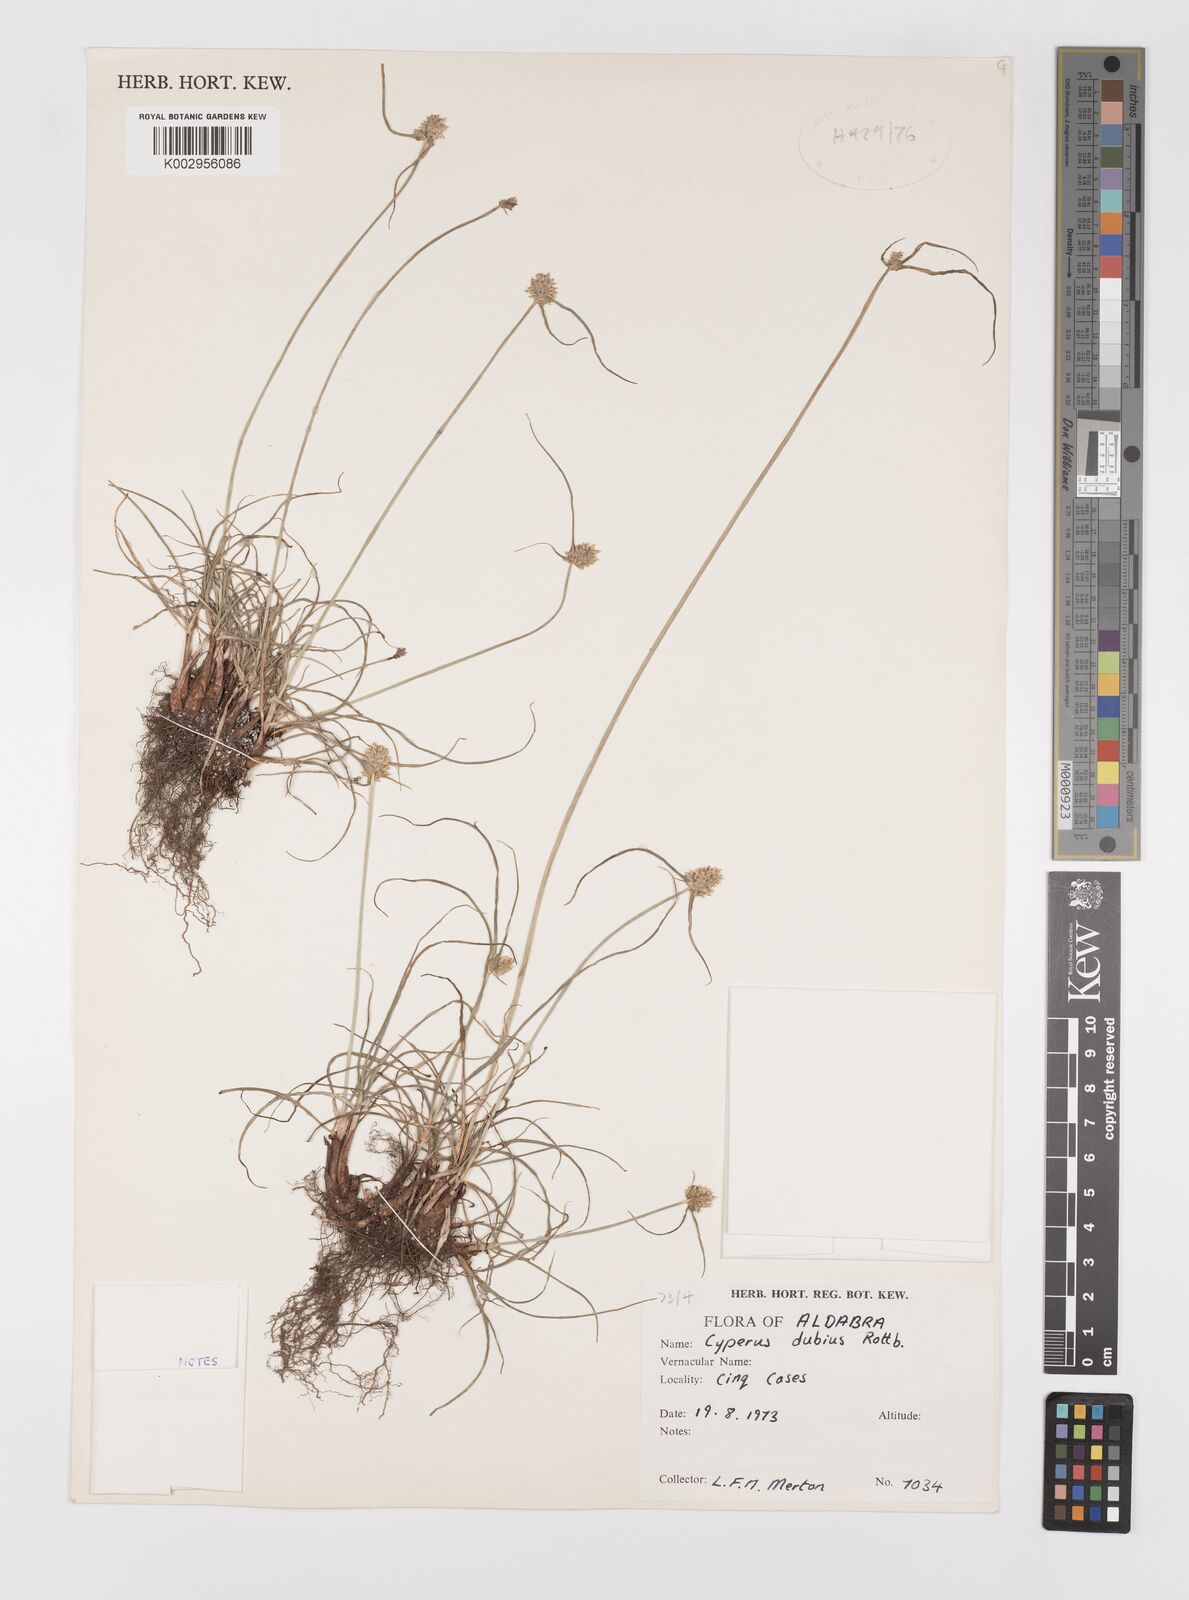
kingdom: Plantae
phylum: Tracheophyta
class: Liliopsida
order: Poales
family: Cyperaceae
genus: Cyperus
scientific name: Cyperus dubius
